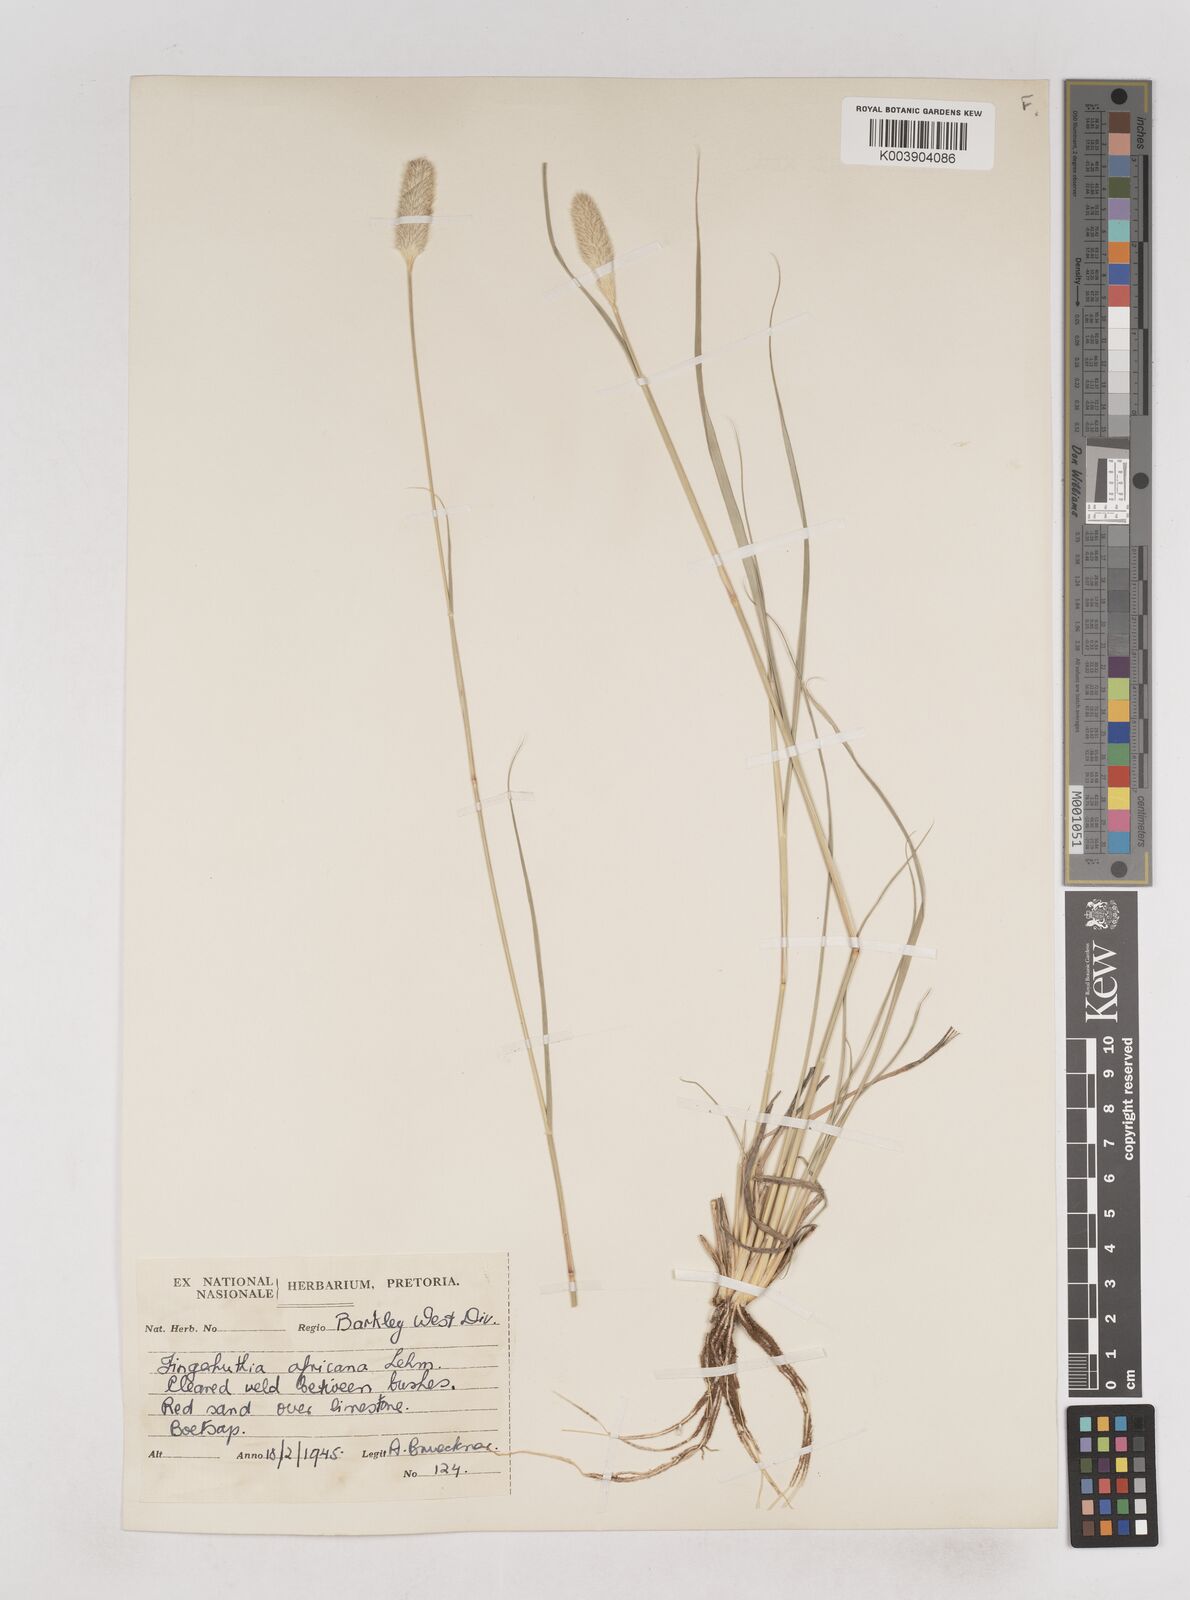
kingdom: Plantae
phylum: Tracheophyta
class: Liliopsida
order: Poales
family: Poaceae
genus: Fingerhuthia
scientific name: Fingerhuthia africana
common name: Zulu fescue
